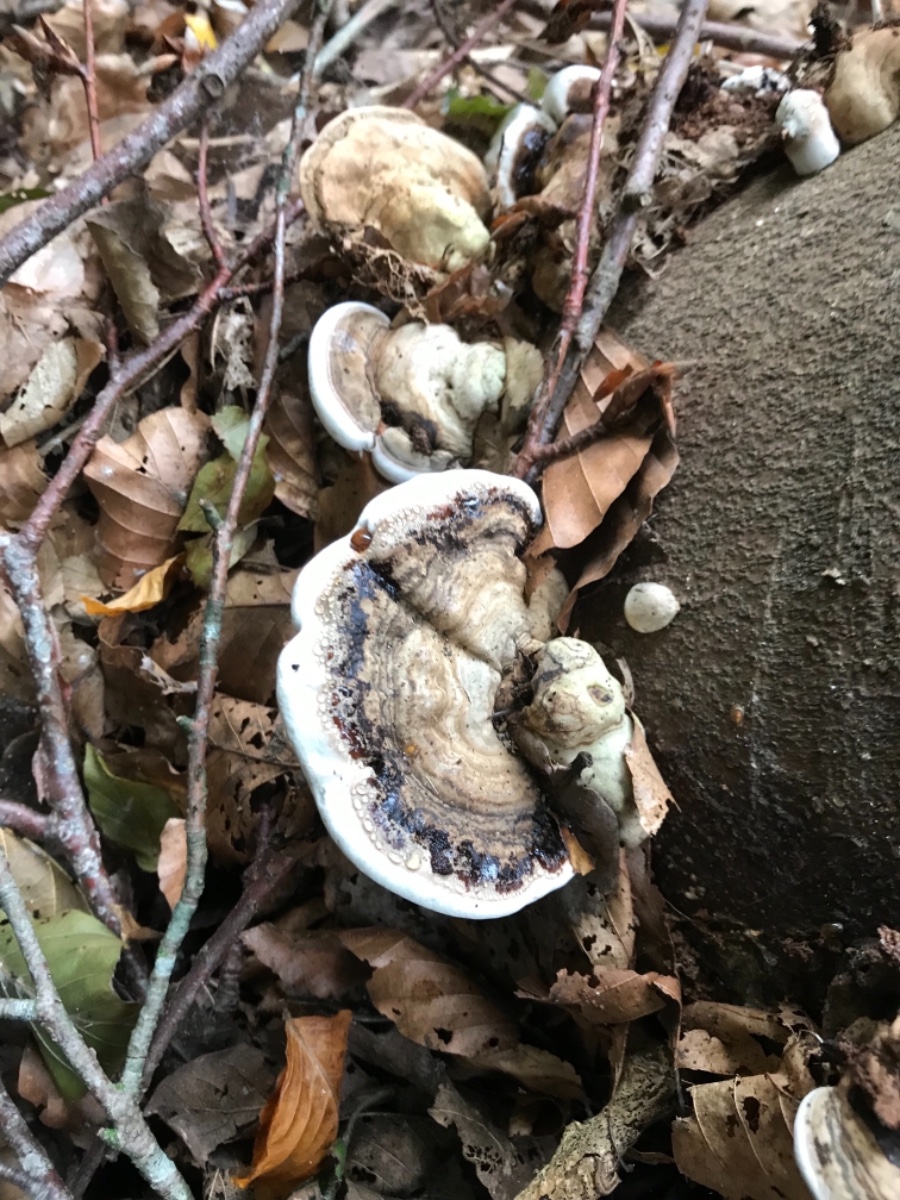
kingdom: Fungi
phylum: Basidiomycota
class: Agaricomycetes
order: Polyporales
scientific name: Polyporales
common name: poresvampordenen
